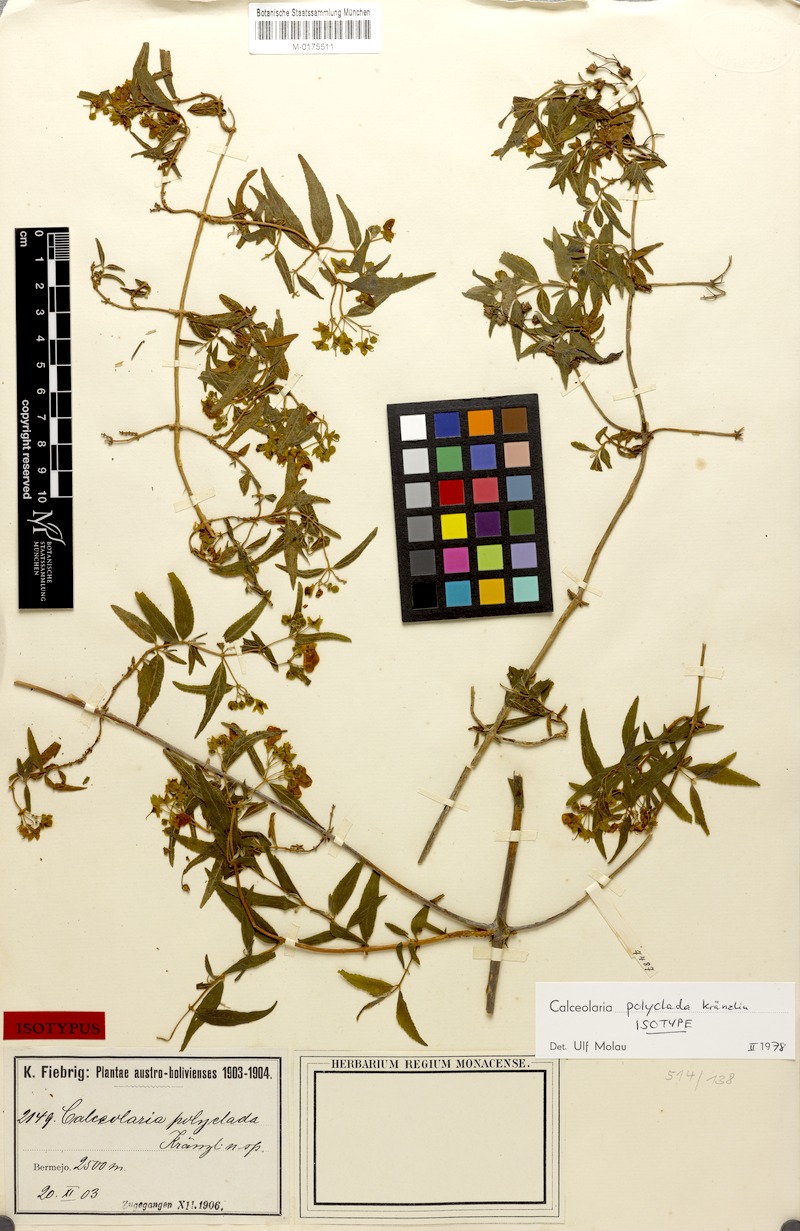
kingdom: Plantae
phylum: Tracheophyta
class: Magnoliopsida
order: Lamiales
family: Calceolariaceae
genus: Calceolaria
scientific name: Calceolaria polyclada
